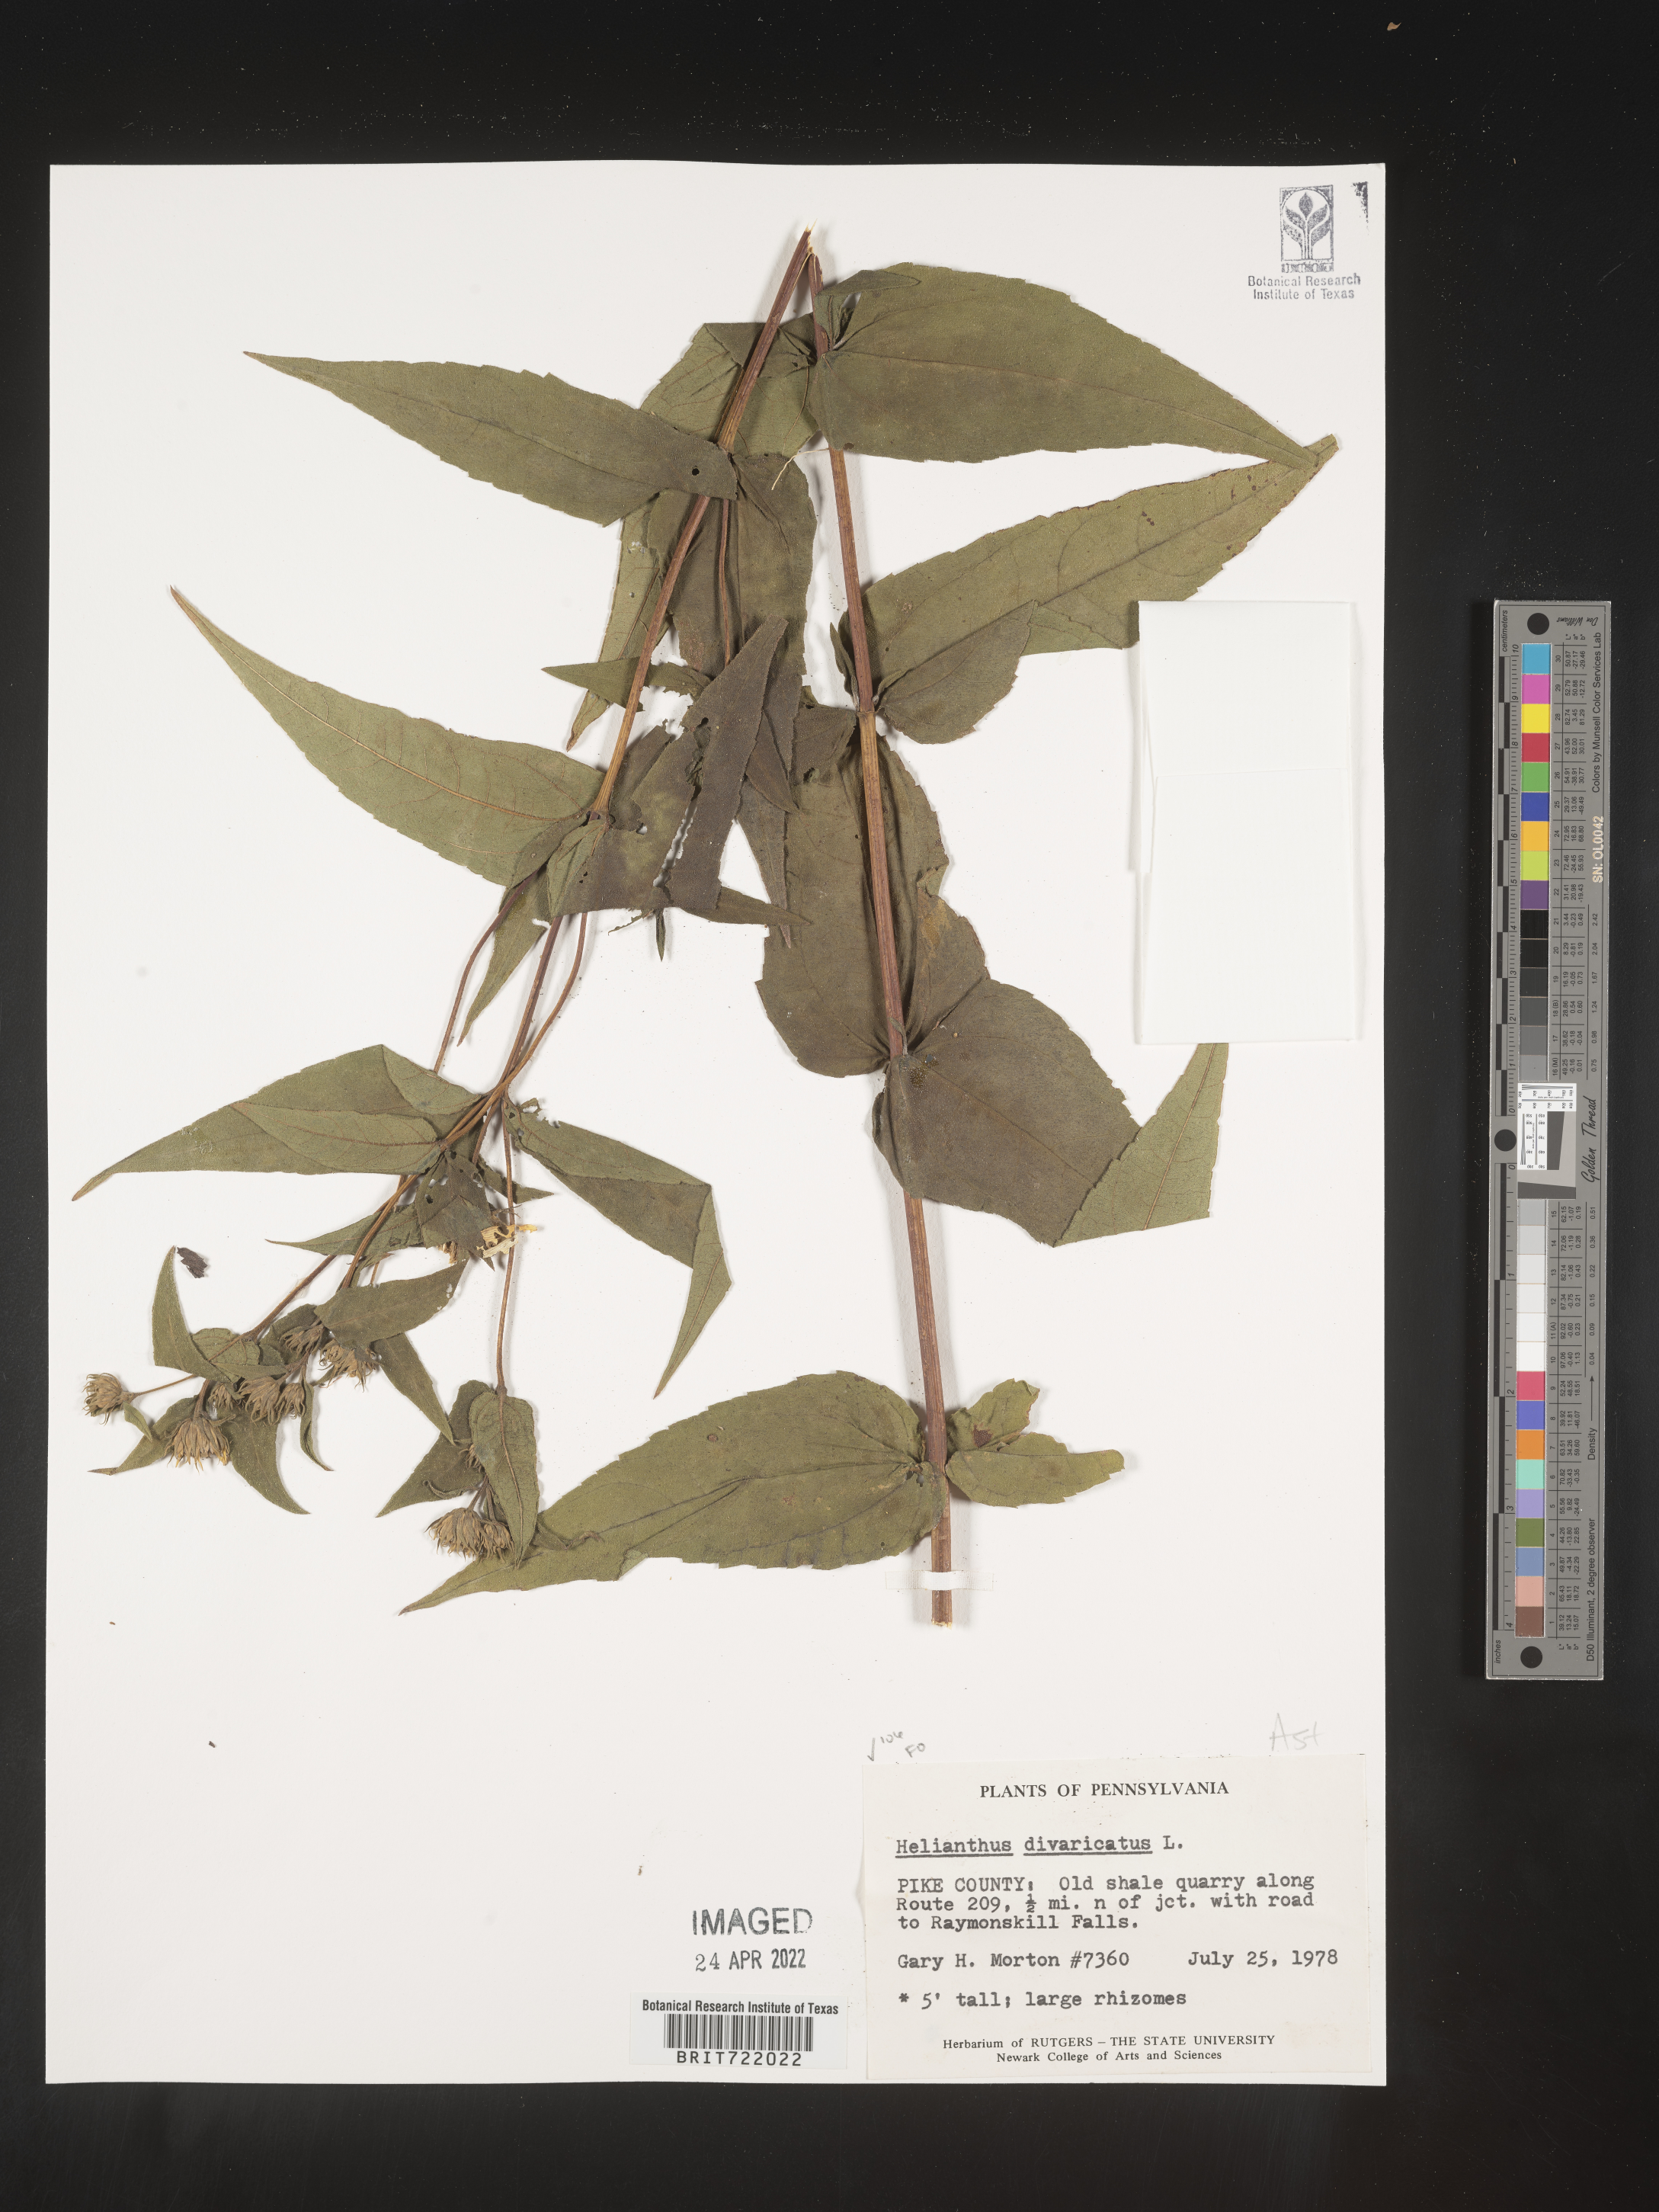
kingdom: Plantae
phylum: Tracheophyta
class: Magnoliopsida
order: Asterales
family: Asteraceae
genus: Helianthus
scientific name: Helianthus divaricatus
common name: Divergent sunflower
